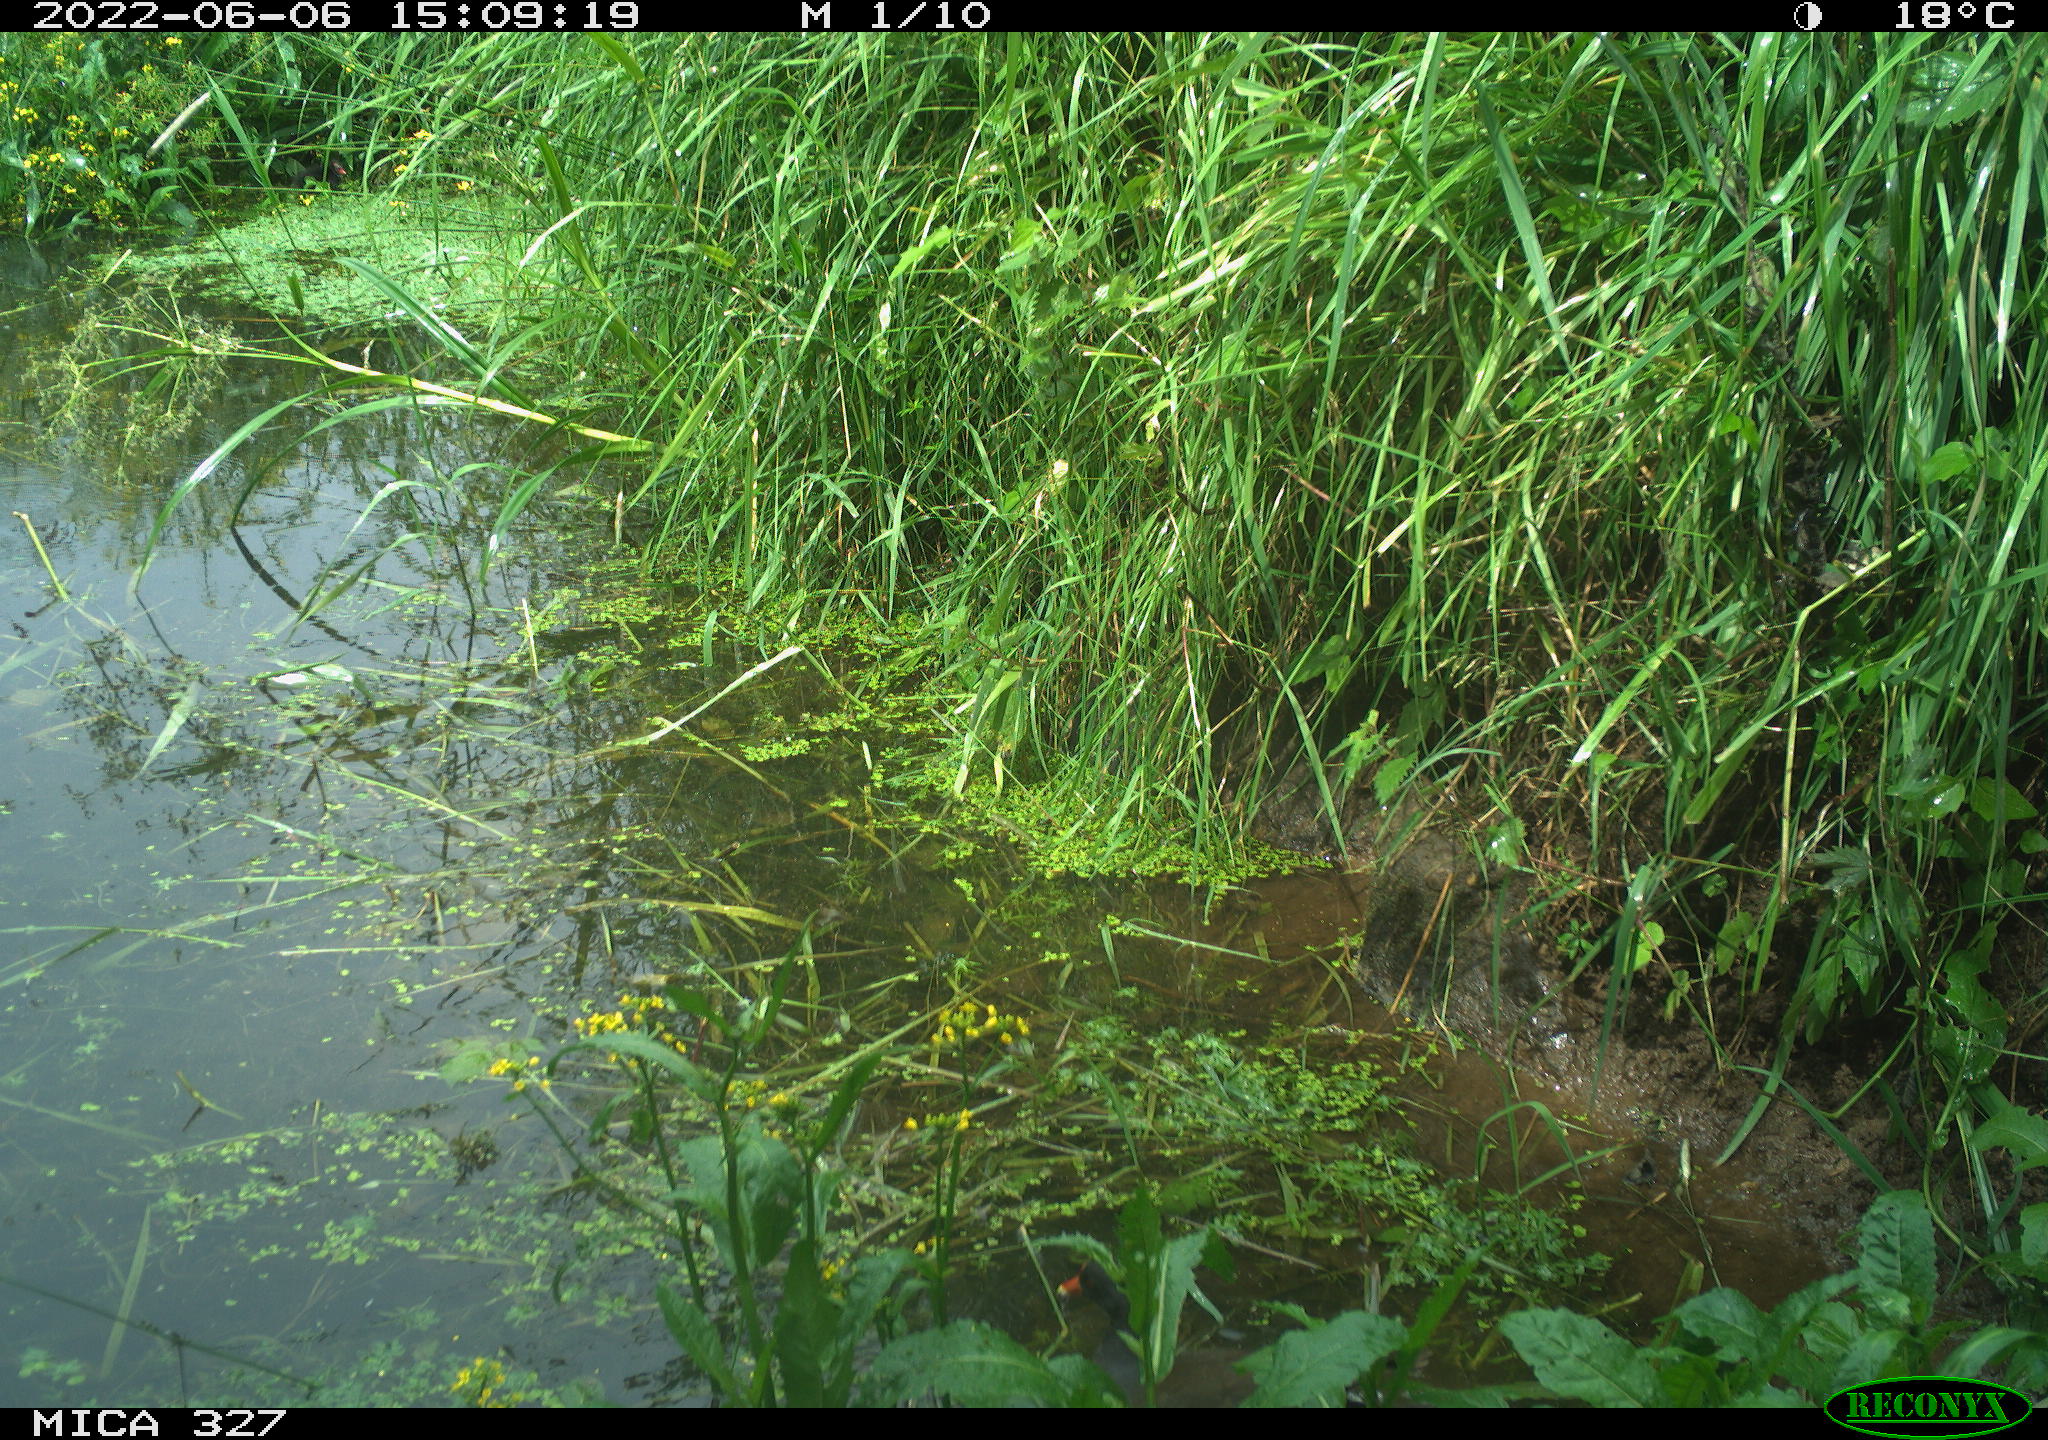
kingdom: Animalia
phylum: Chordata
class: Aves
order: Gruiformes
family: Rallidae
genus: Gallinula
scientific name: Gallinula chloropus
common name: Common moorhen
